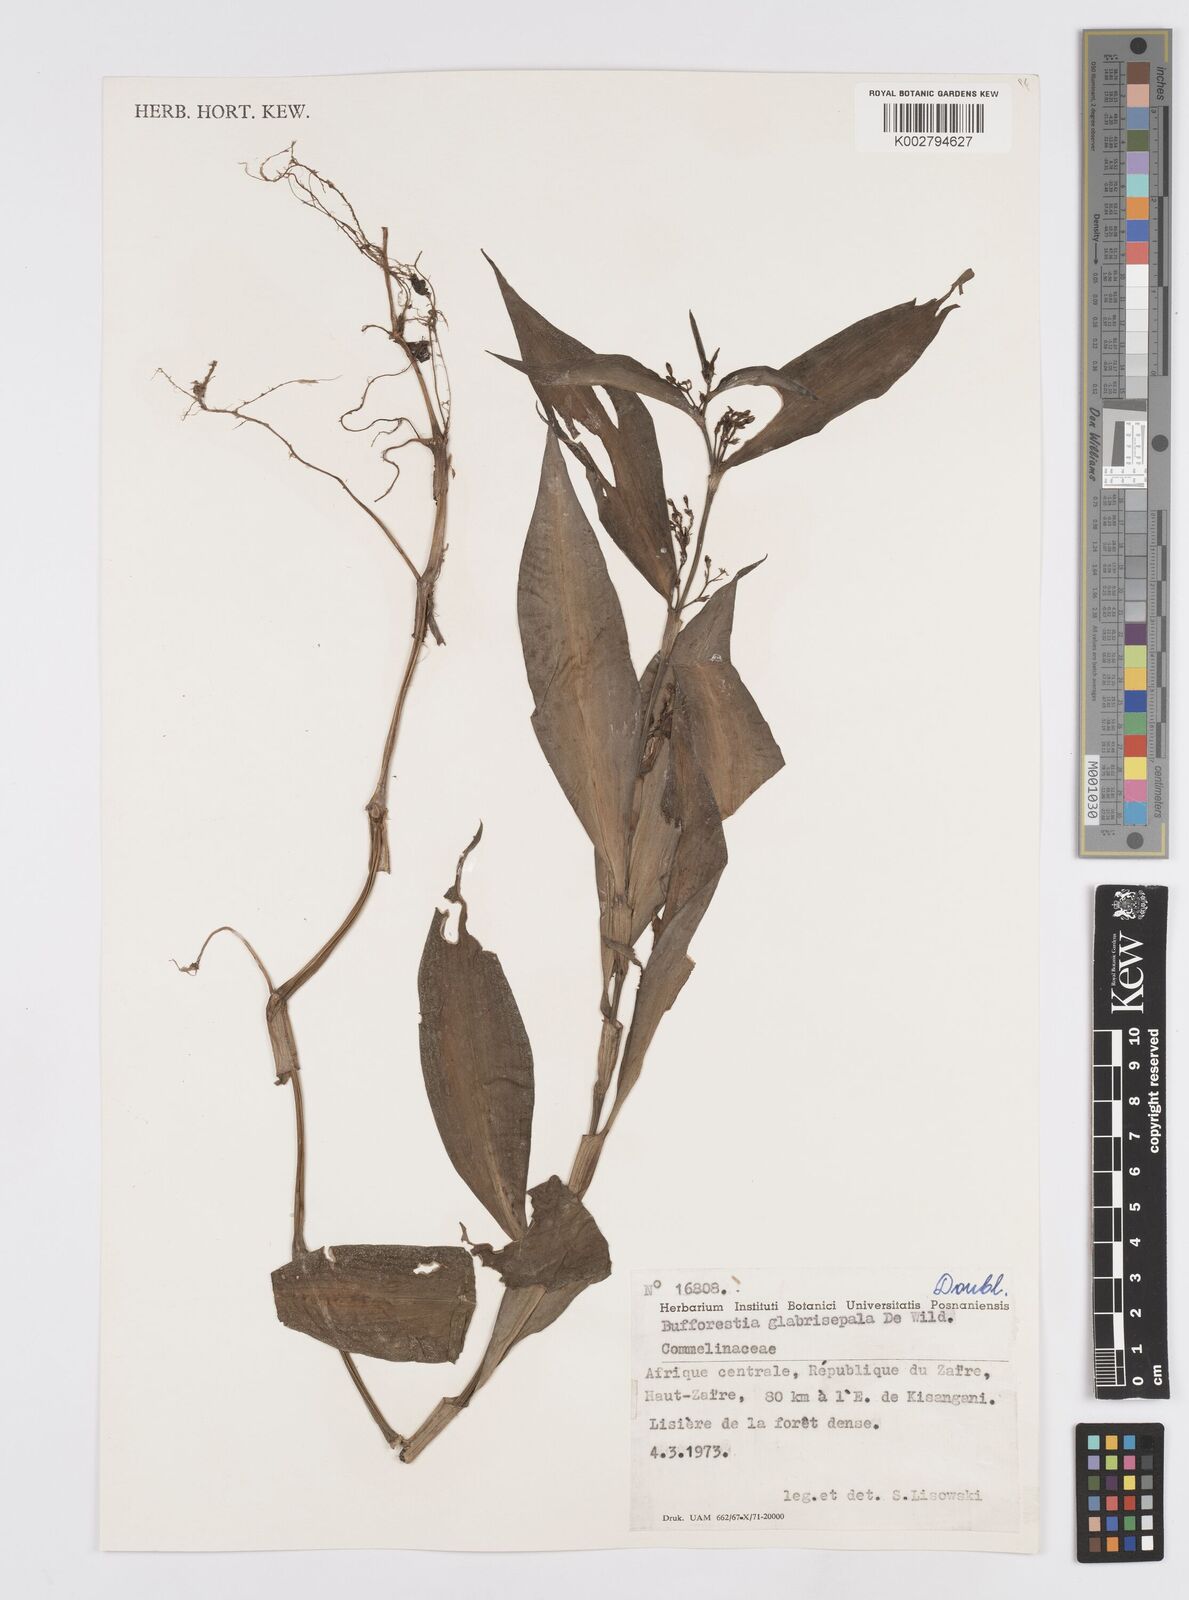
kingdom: Plantae
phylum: Tracheophyta
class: Liliopsida
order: Commelinales
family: Commelinaceae
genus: Stanfieldiella
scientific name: Stanfieldiella imperforata
